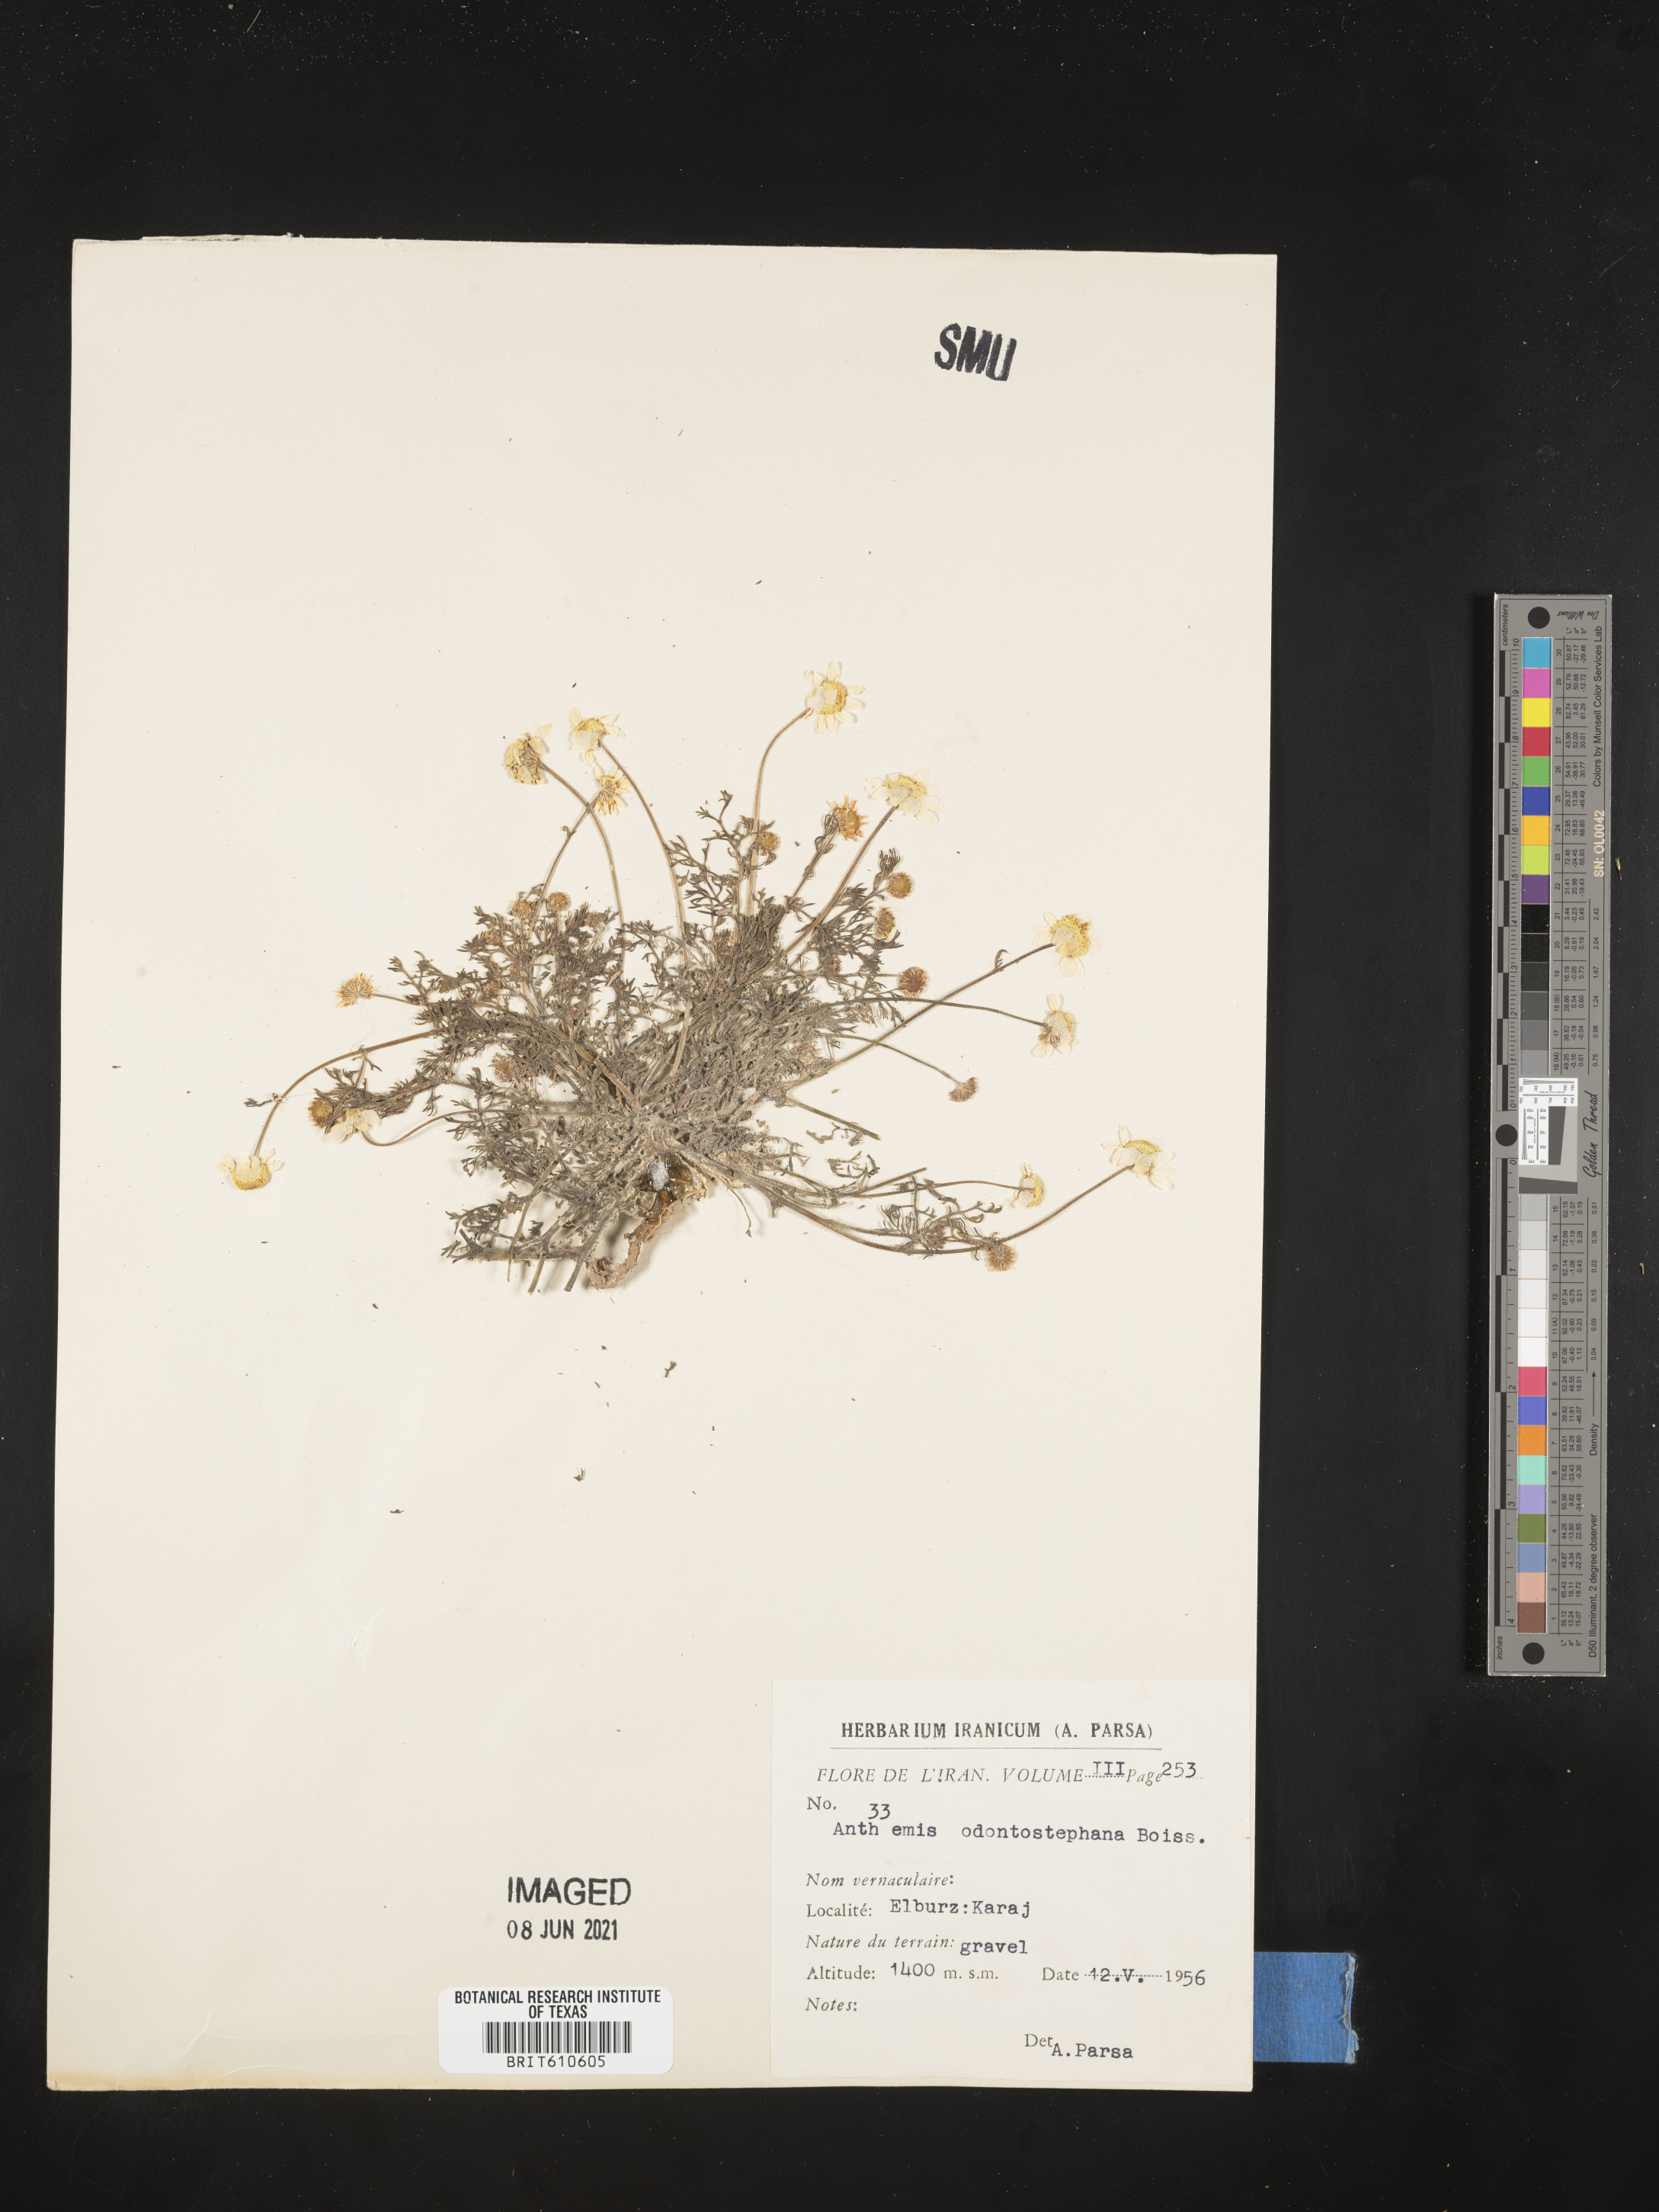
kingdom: Plantae
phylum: Tracheophyta
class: Magnoliopsida
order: Asterales
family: Asteraceae
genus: Anthemis
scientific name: Anthemis odontostephana
